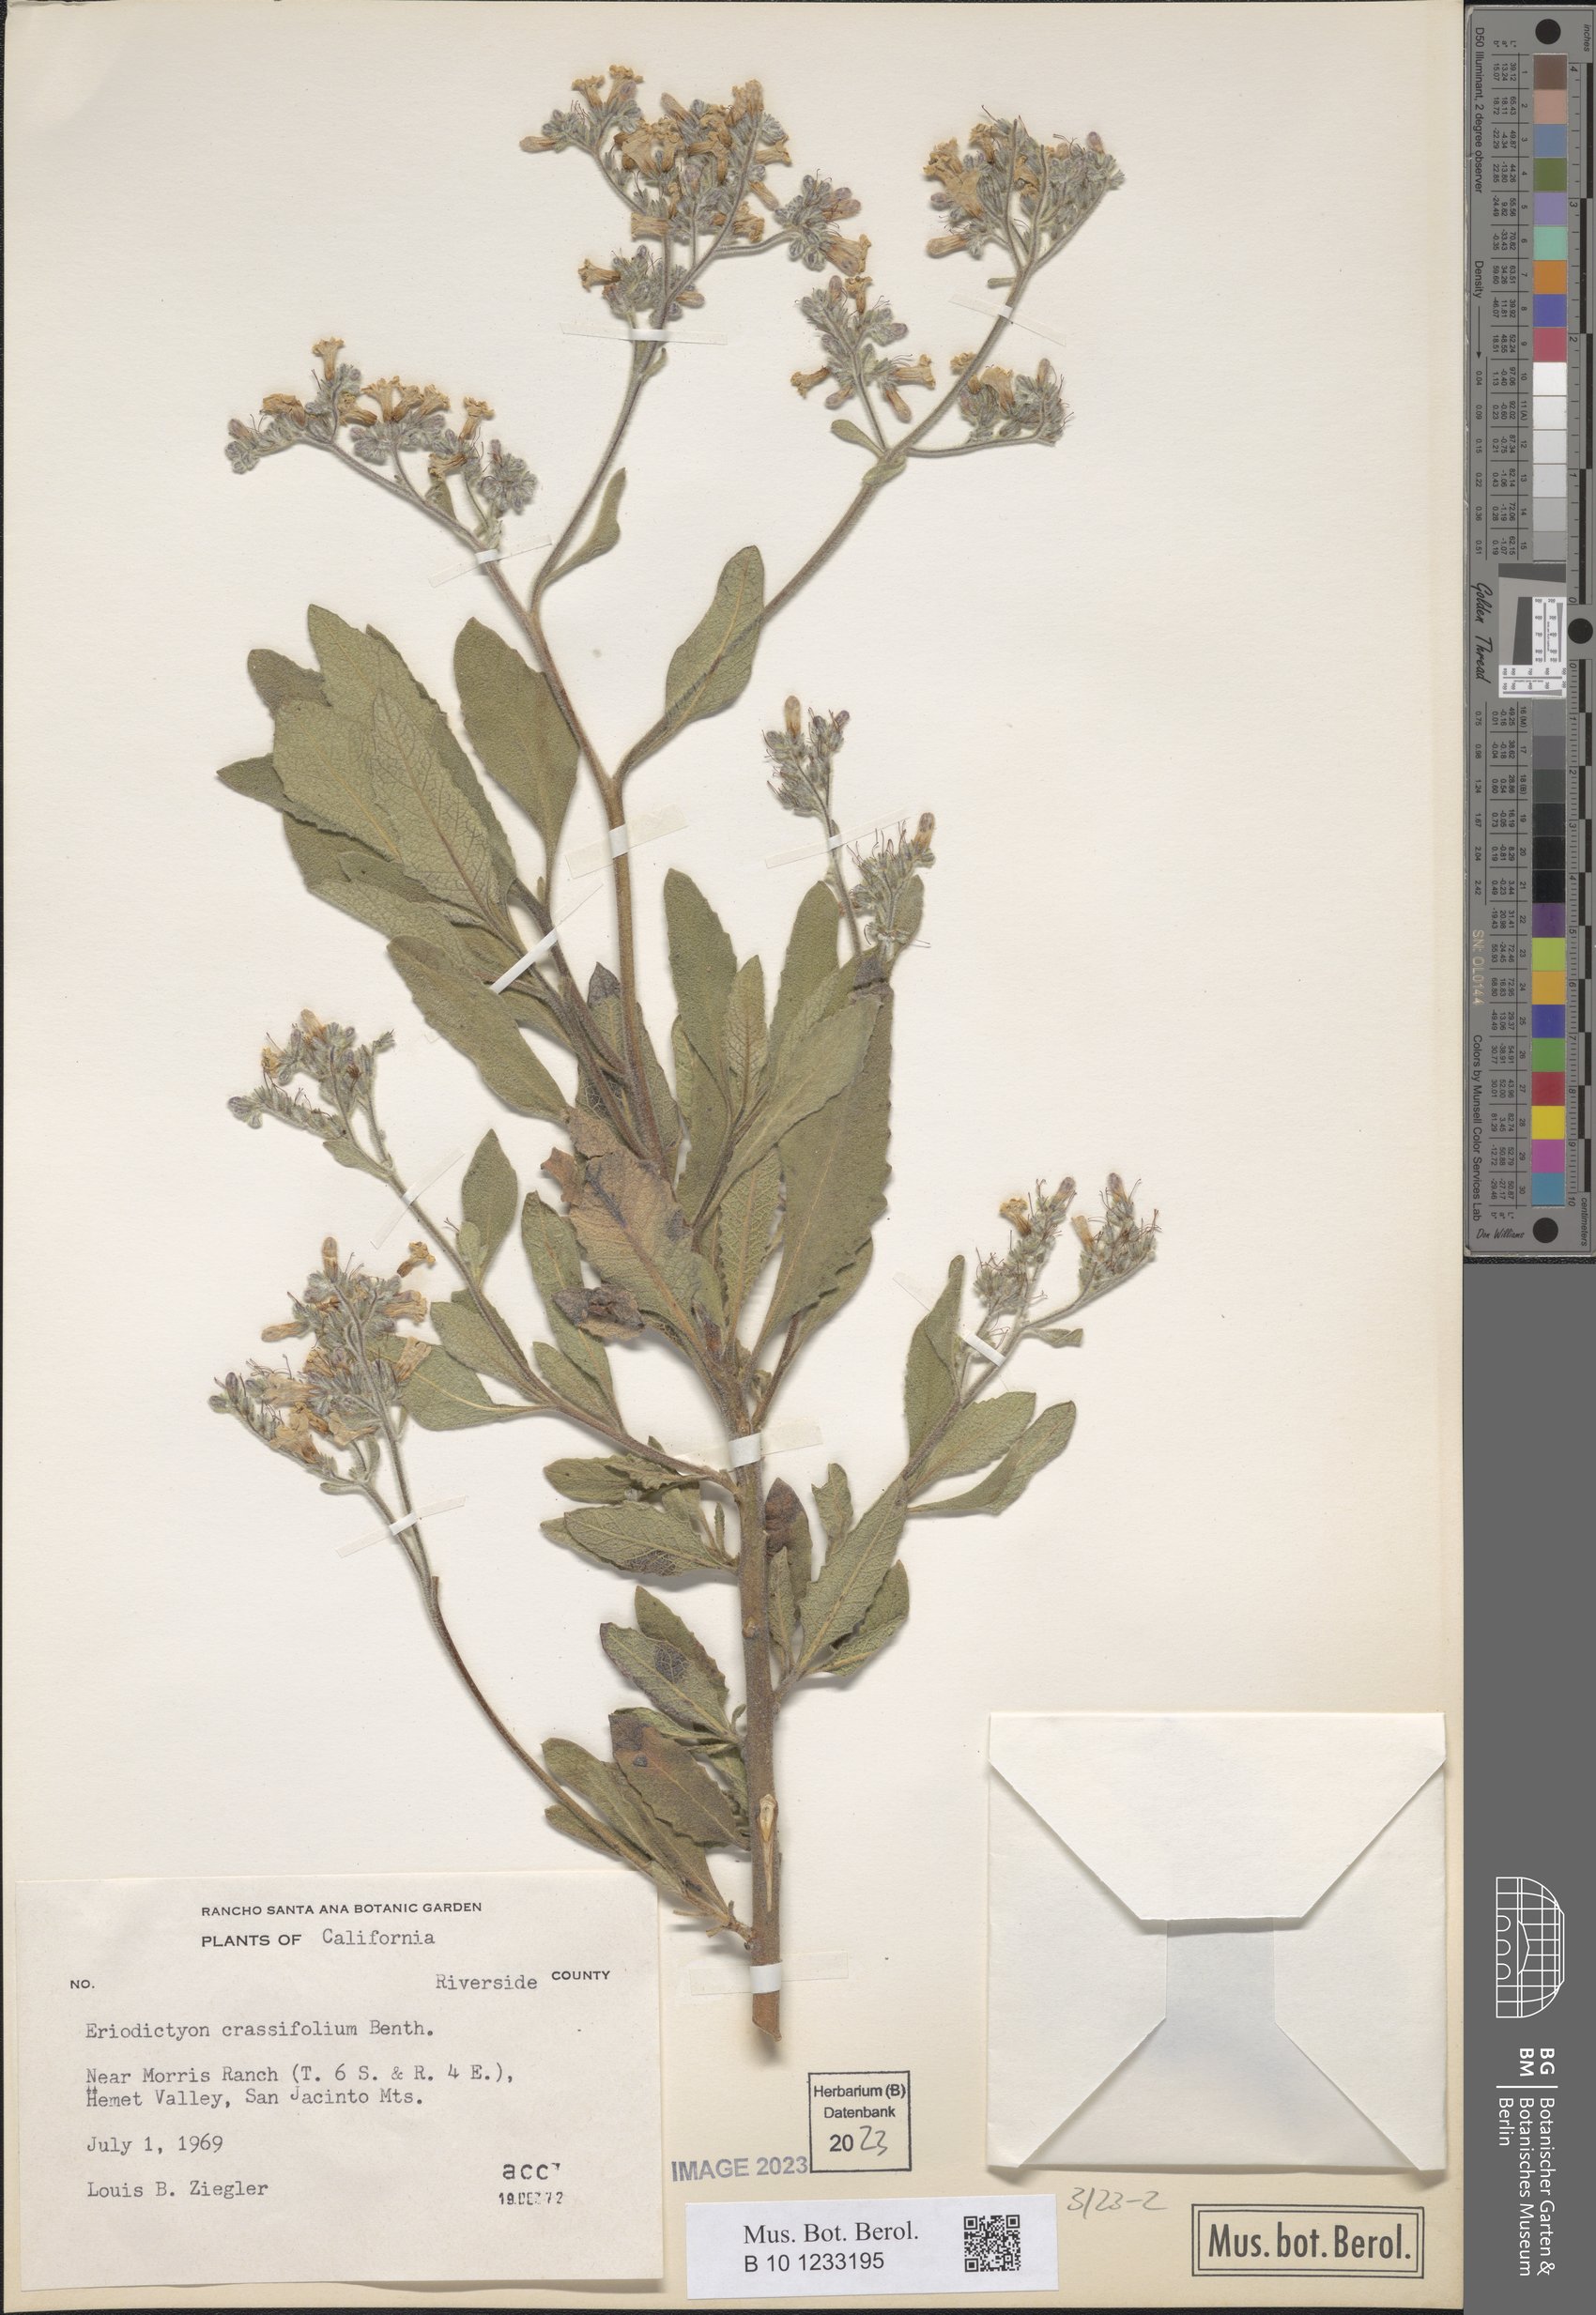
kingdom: Plantae
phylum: Tracheophyta
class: Magnoliopsida
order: Boraginales
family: Namaceae
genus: Eriodictyon
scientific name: Eriodictyon crassifolium
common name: Thick-leaf yerba-santa
